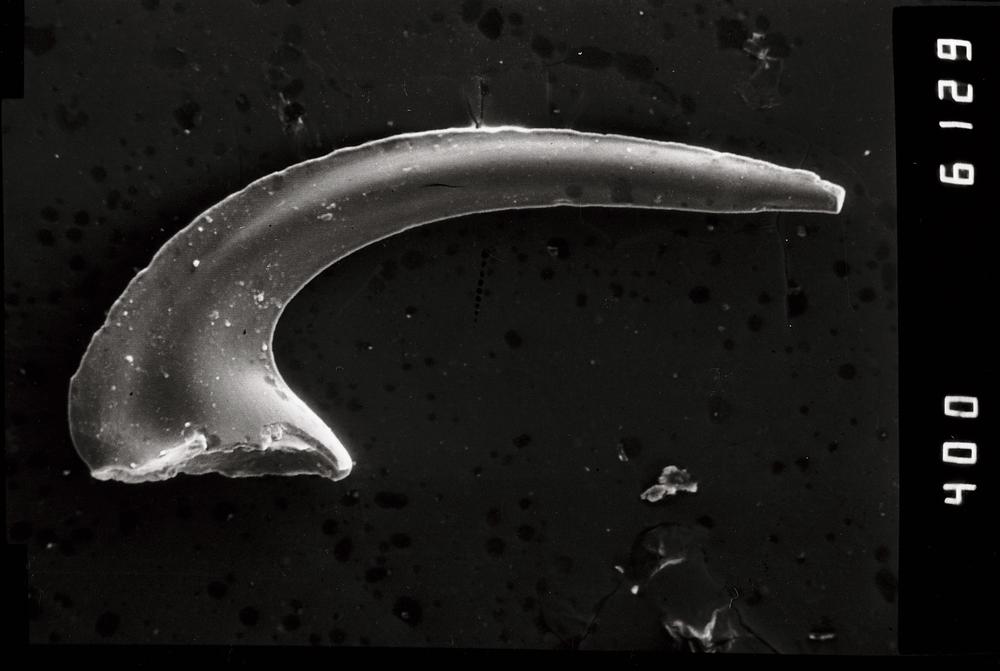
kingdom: Animalia
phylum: Chordata
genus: Paroistodus
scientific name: Paroistodus
